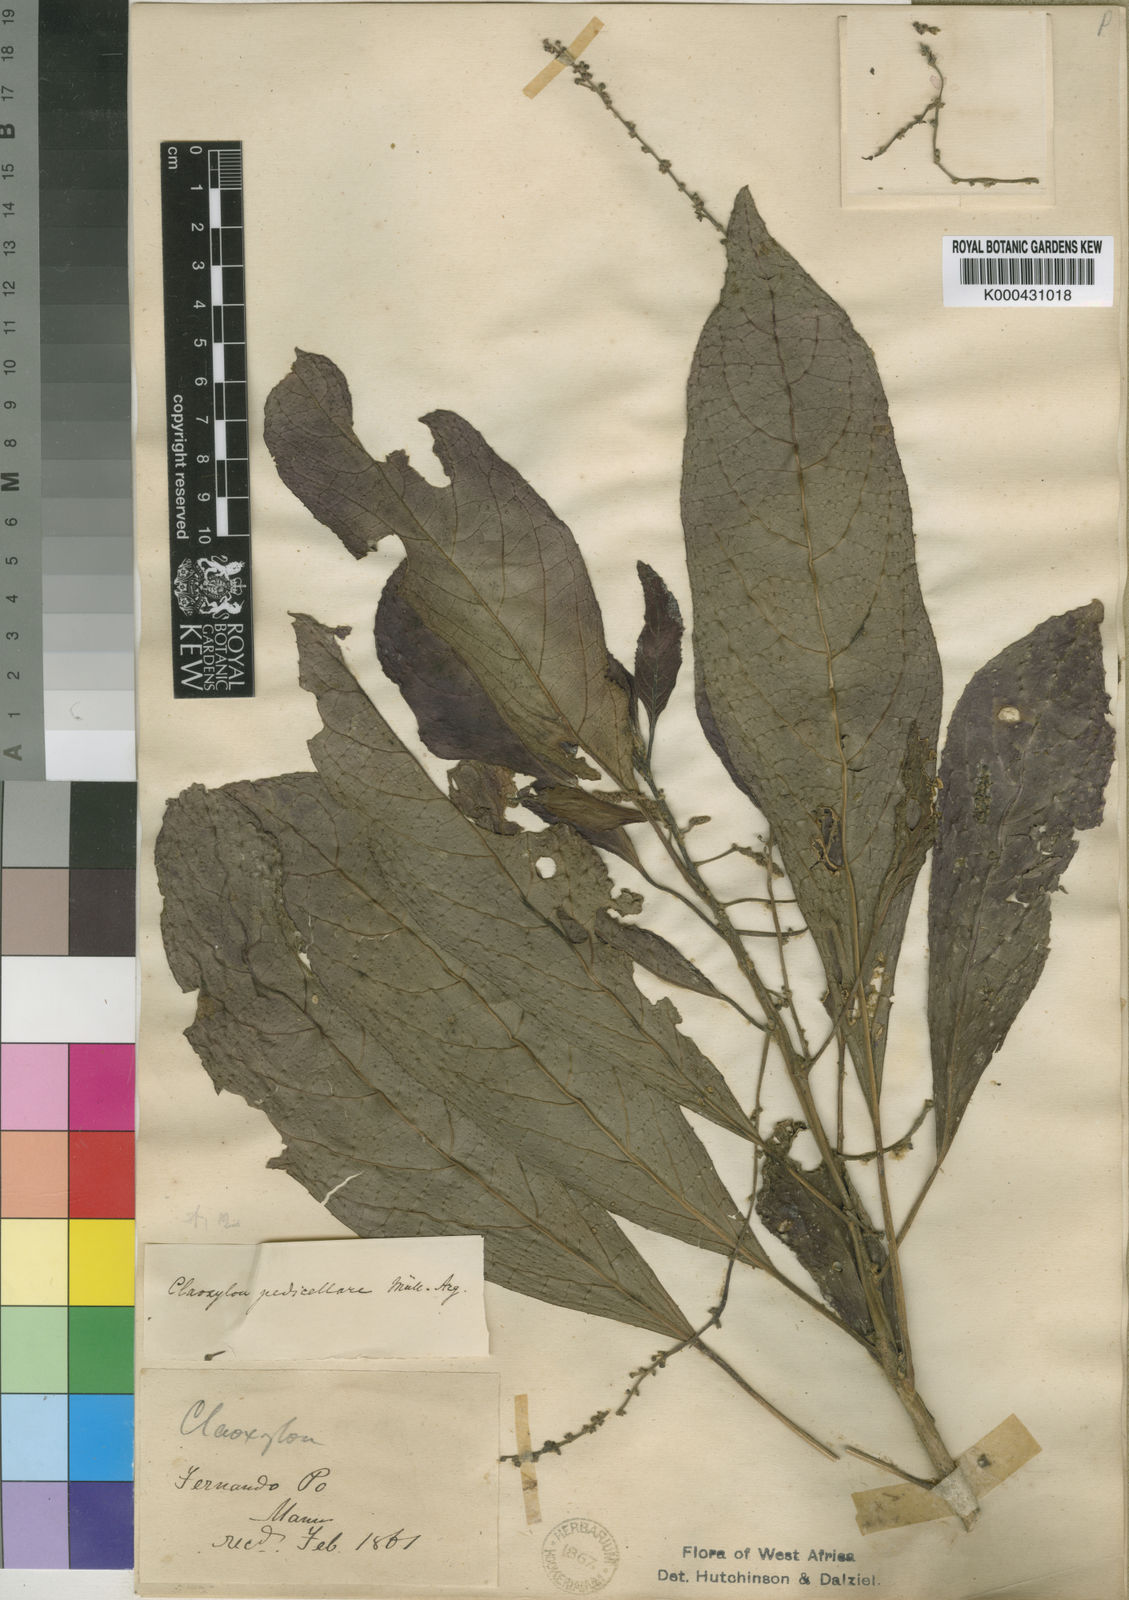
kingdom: Plantae
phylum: Tracheophyta
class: Magnoliopsida
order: Malpighiales
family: Euphorbiaceae
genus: Discoclaoxylon
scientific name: Discoclaoxylon
